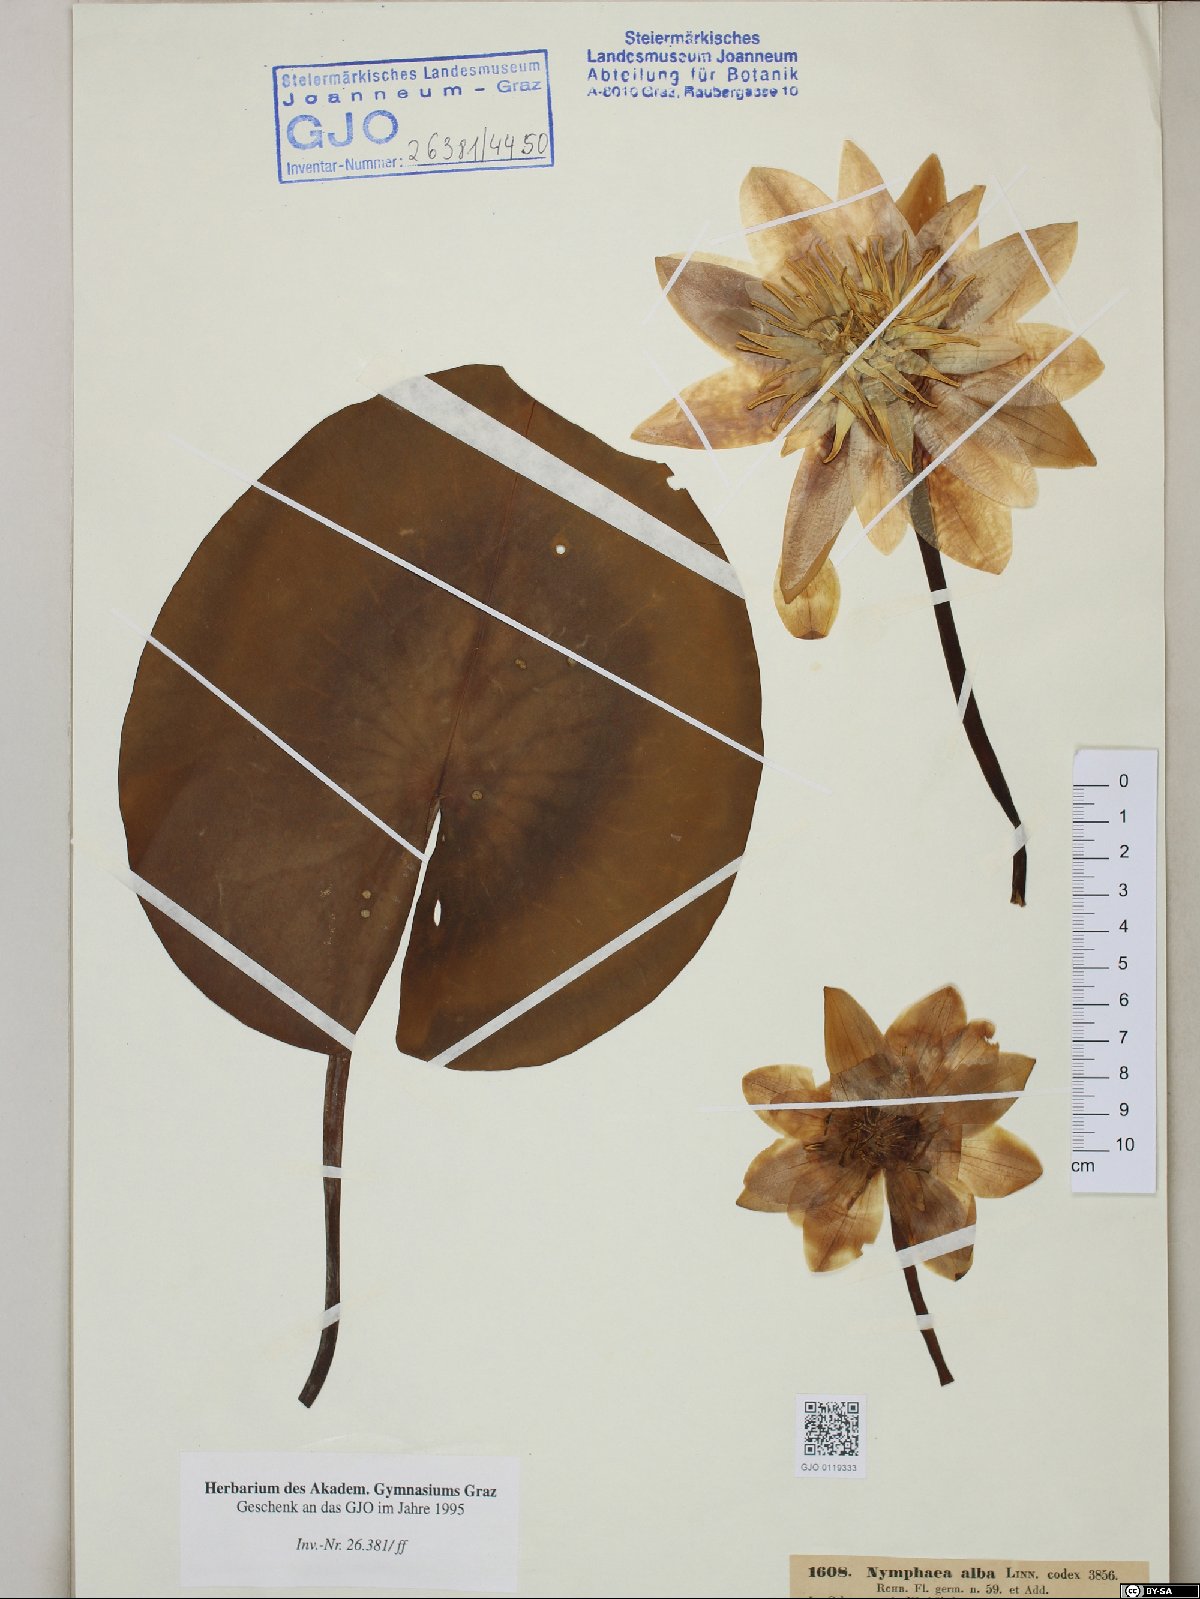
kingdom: Plantae
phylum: Tracheophyta
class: Magnoliopsida
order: Nymphaeales
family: Nymphaeaceae
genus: Nymphaea
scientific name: Nymphaea alba
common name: White water-lily
